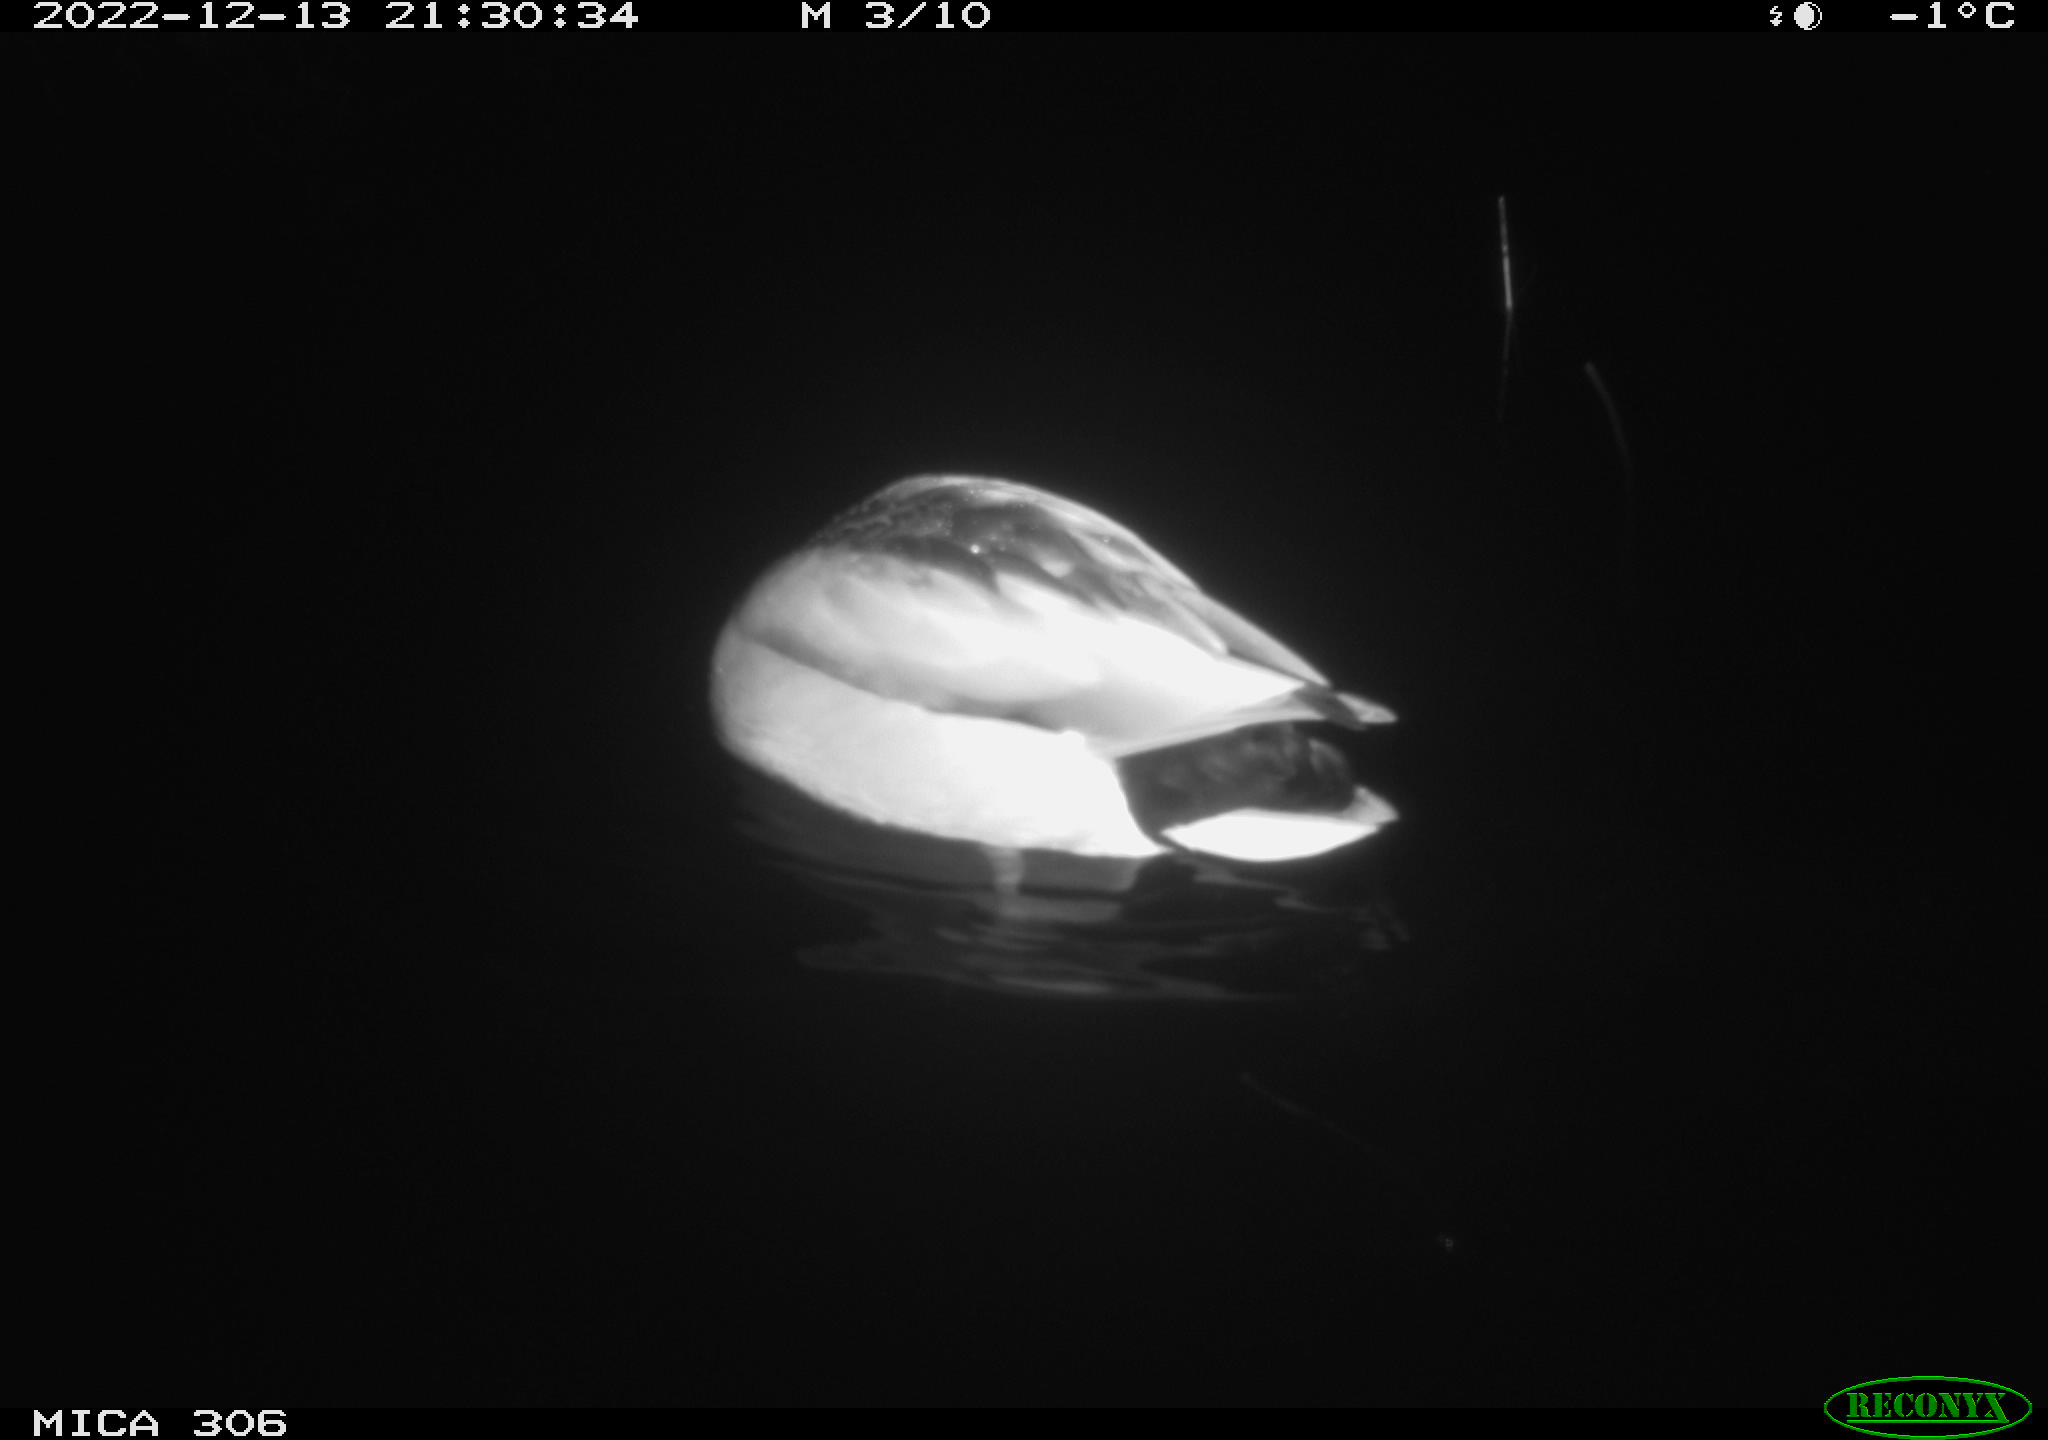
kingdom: Animalia
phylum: Chordata
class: Aves
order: Anseriformes
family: Anatidae
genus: Anas
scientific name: Anas
